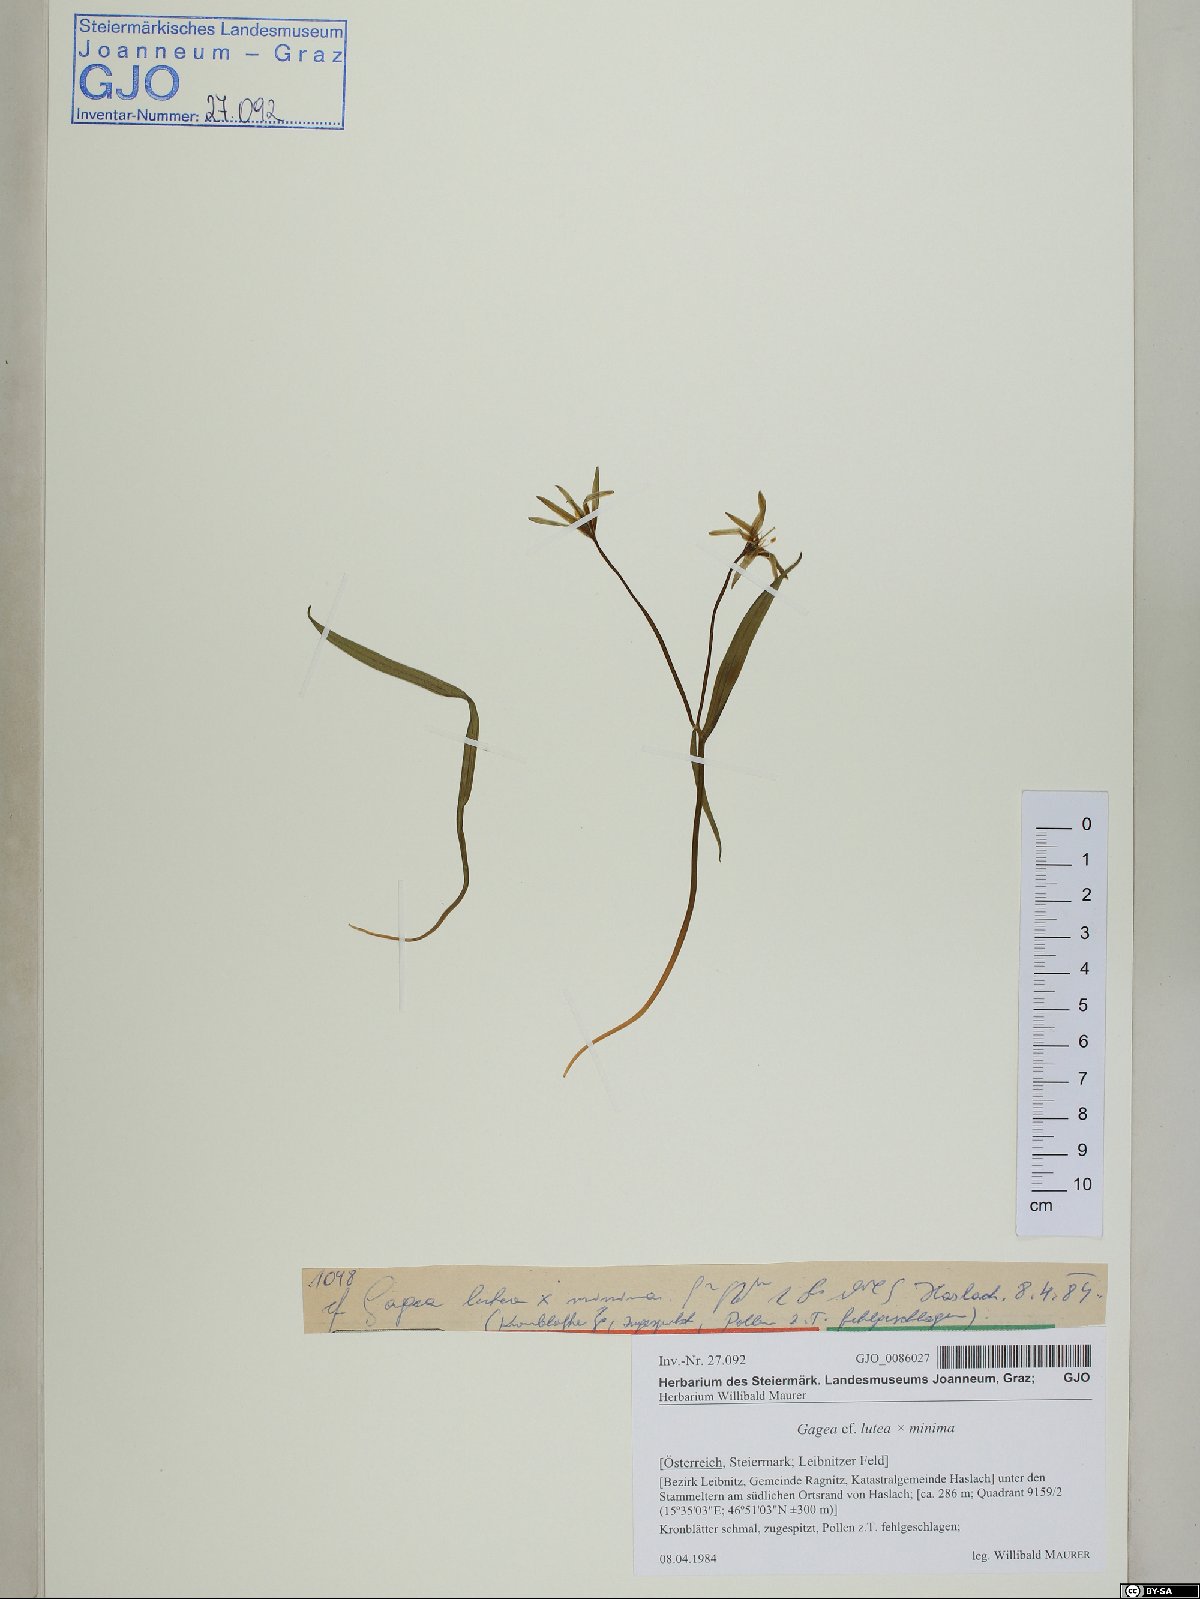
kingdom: Plantae
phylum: Tracheophyta
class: Liliopsida
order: Liliales
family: Liliaceae
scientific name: Liliaceae
